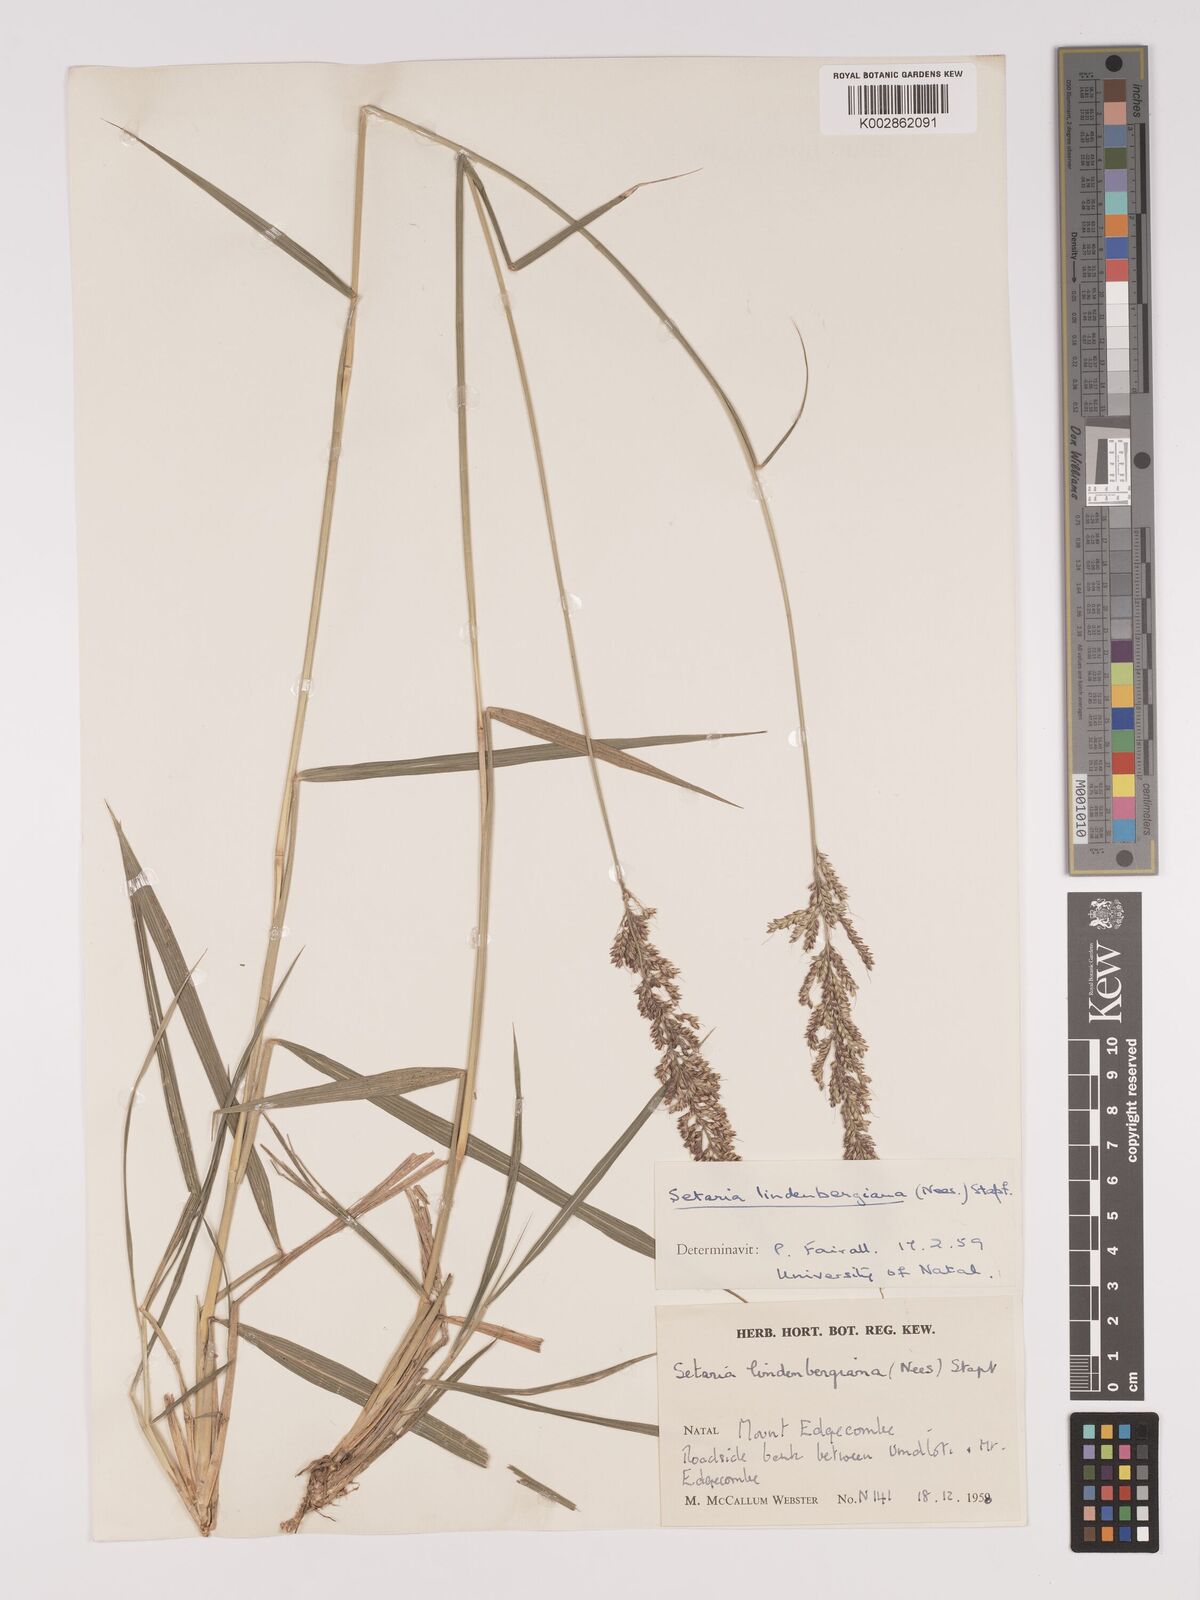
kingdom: Plantae
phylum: Tracheophyta
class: Liliopsida
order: Poales
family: Poaceae
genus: Setaria
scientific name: Setaria lindenbergiana
